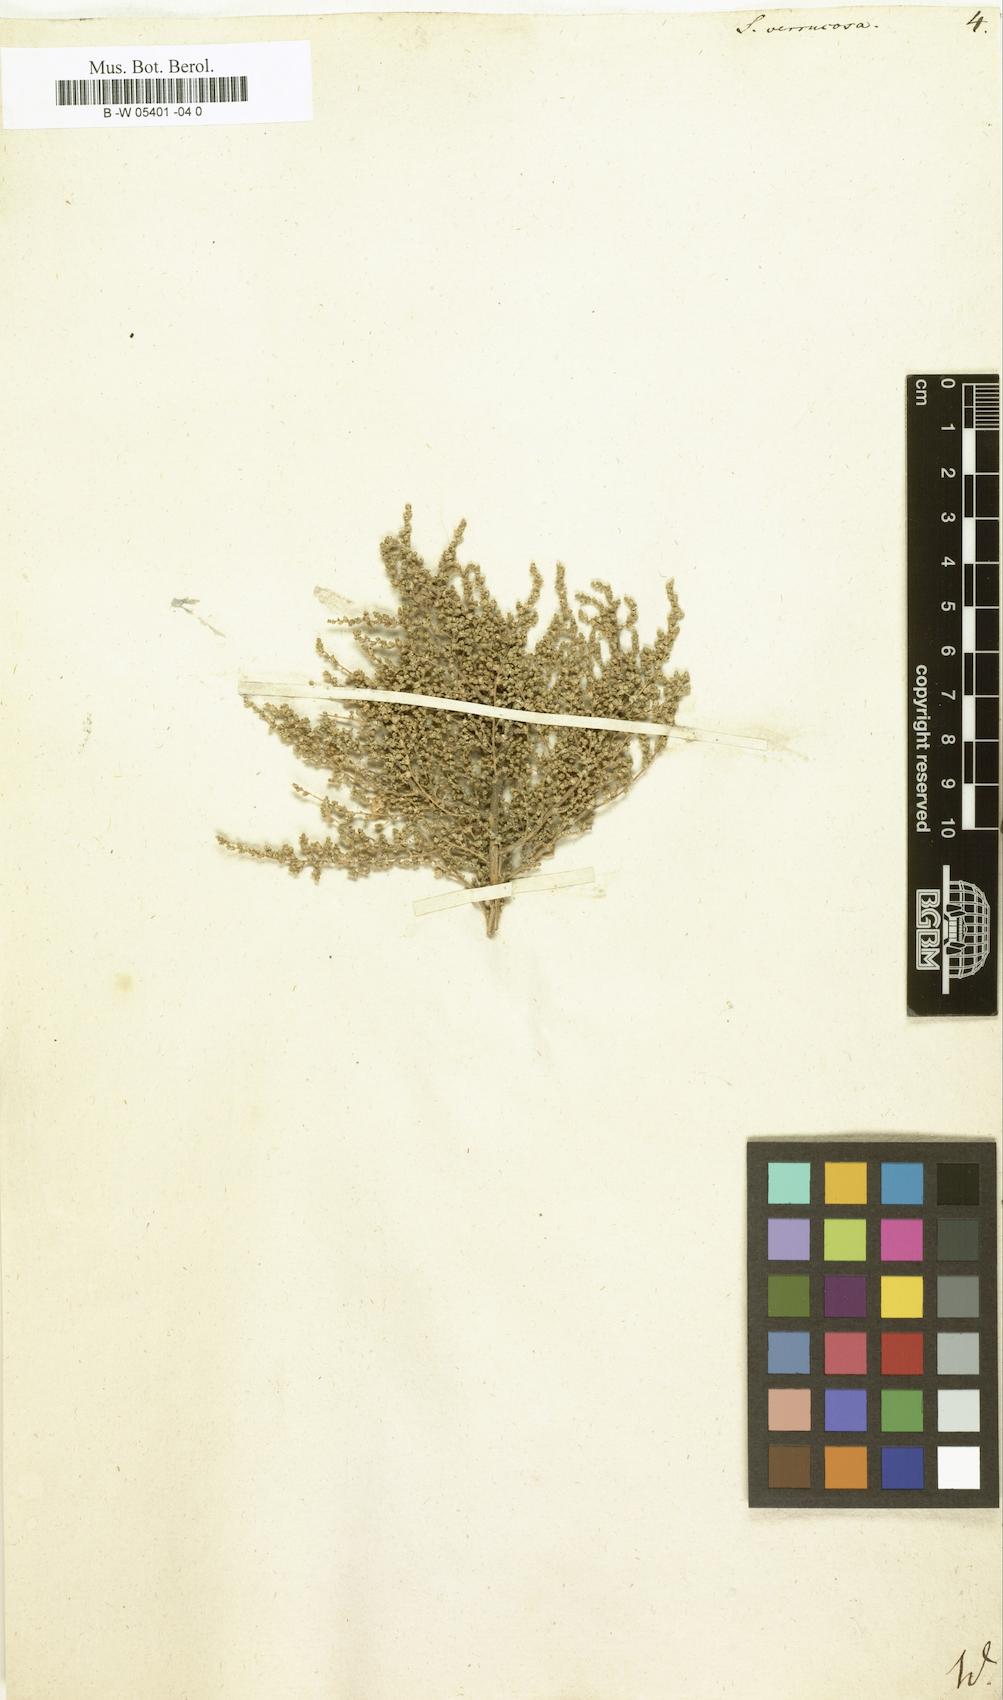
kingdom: Plantae
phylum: Tracheophyta
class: Magnoliopsida
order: Caryophyllales
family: Amaranthaceae
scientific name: Amaranthaceae
